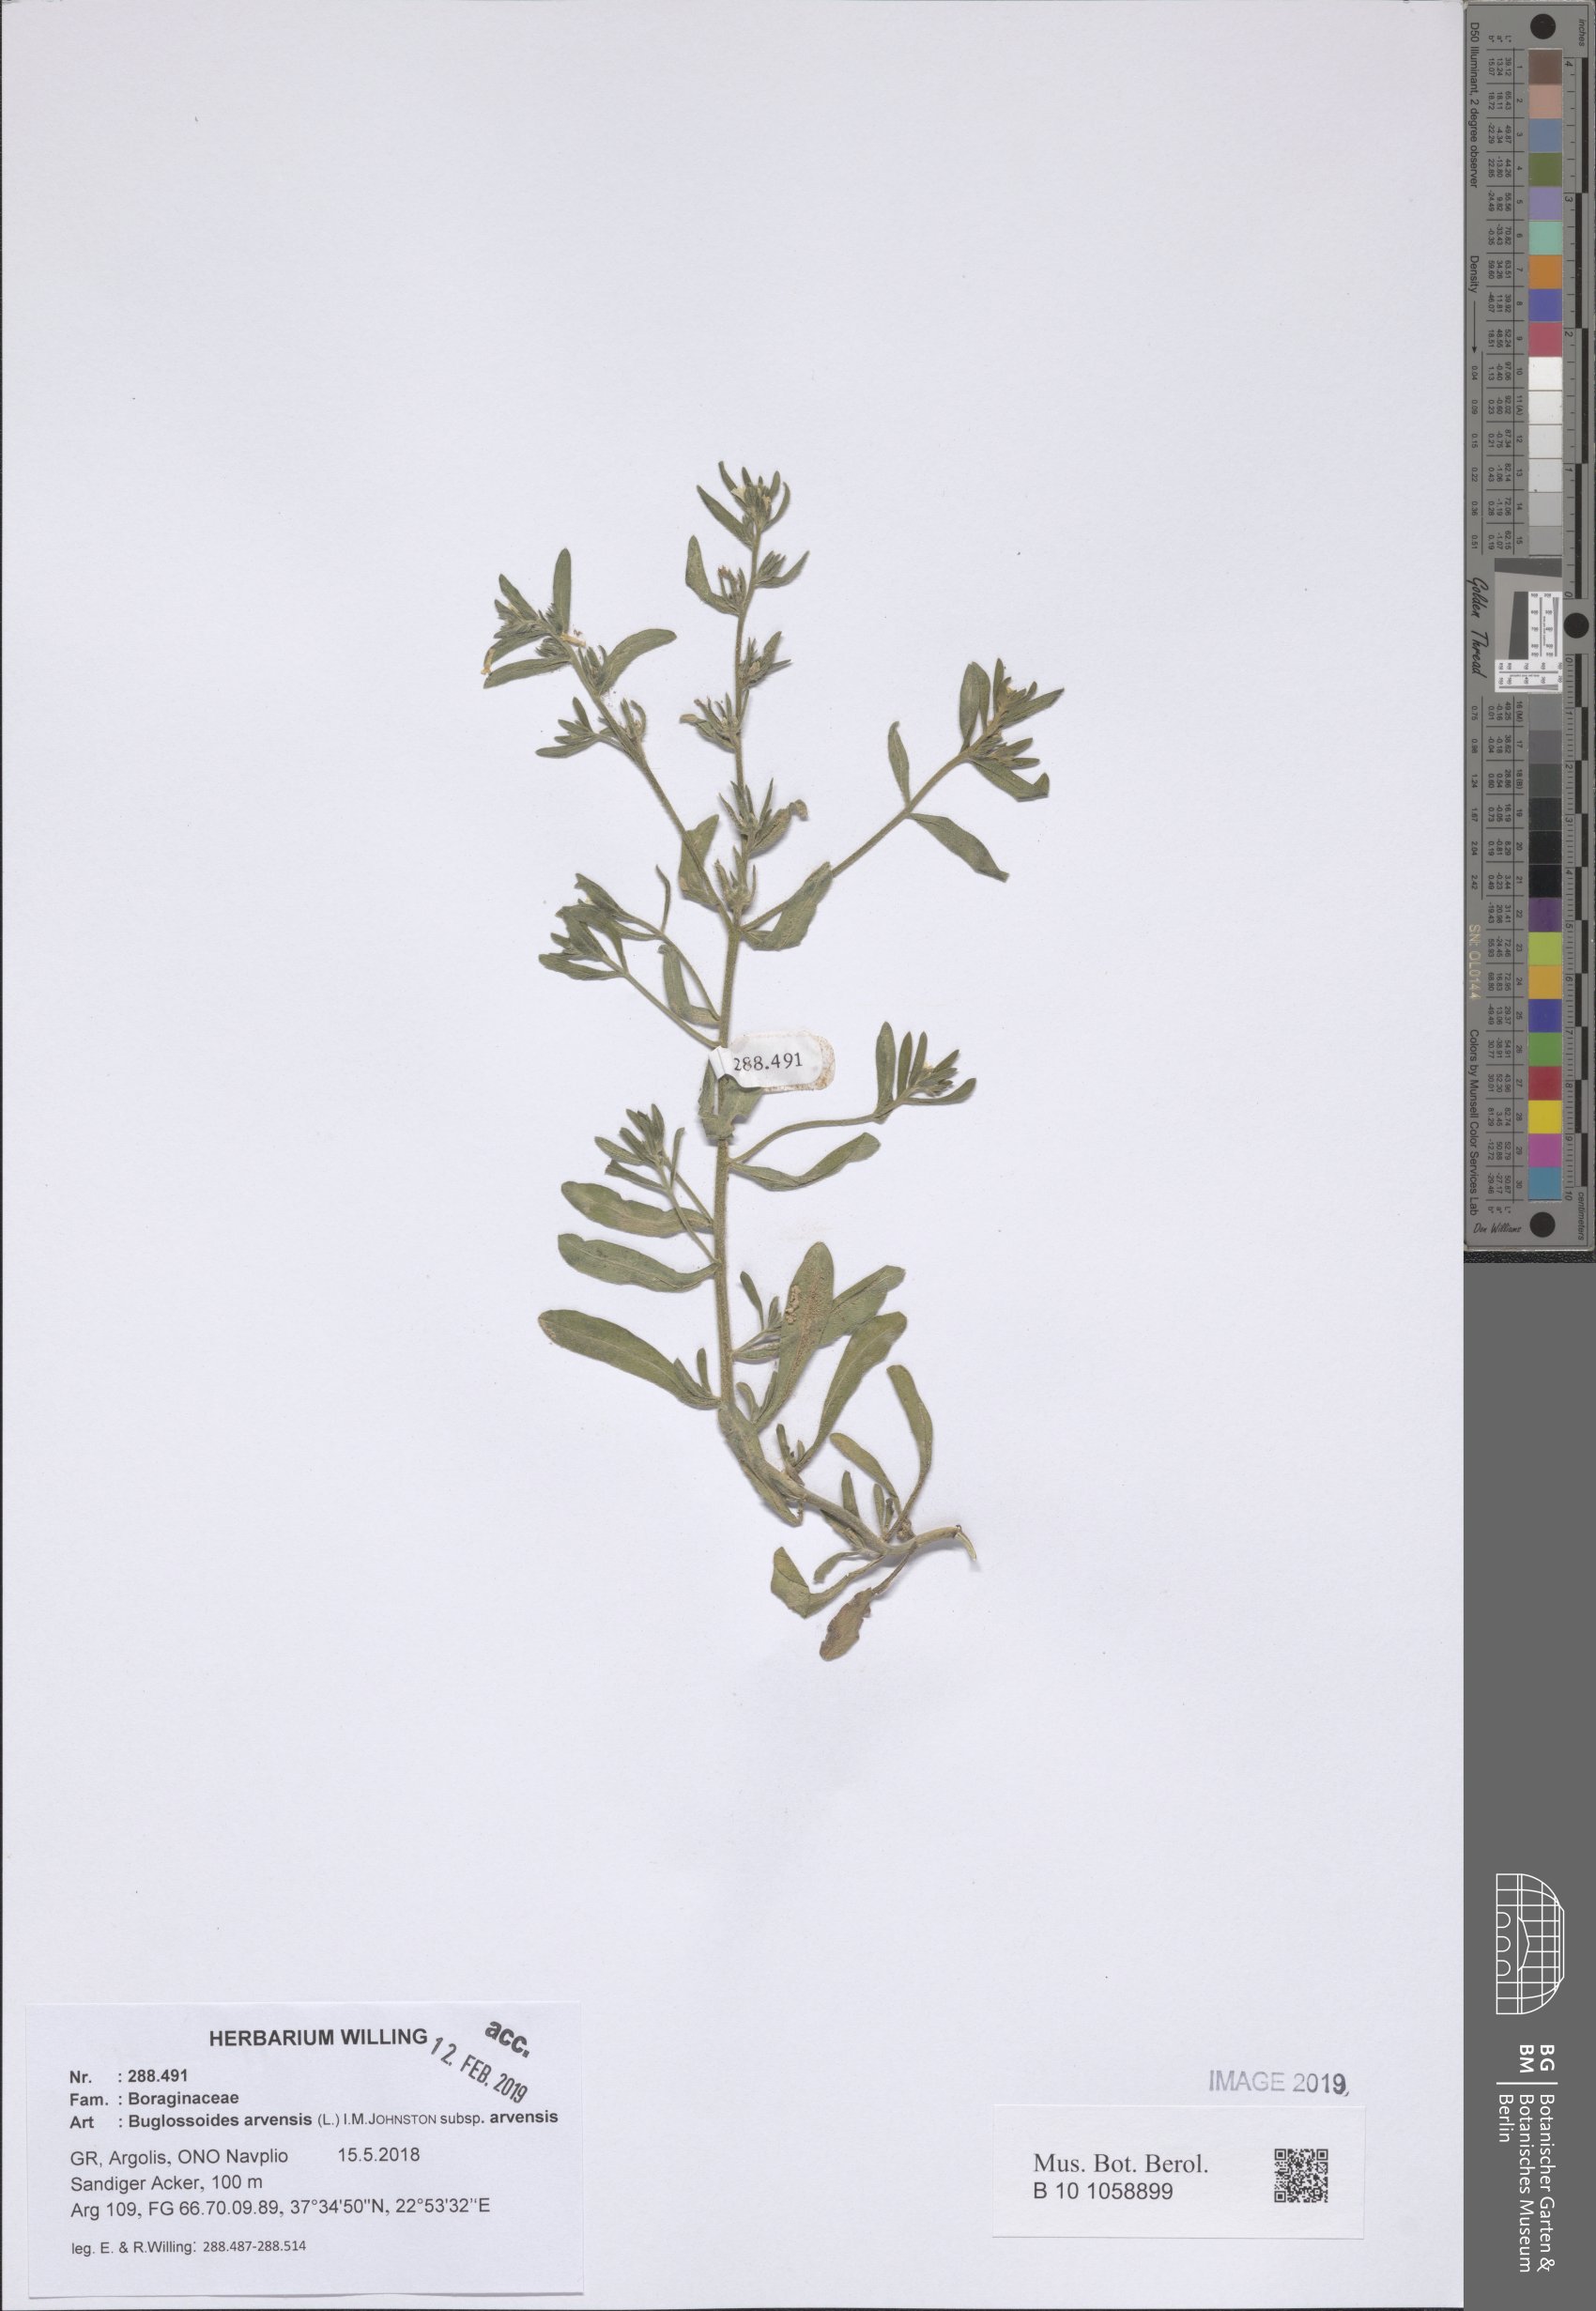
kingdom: Plantae
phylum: Tracheophyta
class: Magnoliopsida
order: Boraginales
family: Boraginaceae
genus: Buglossoides
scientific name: Buglossoides arvensis
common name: Corn gromwell
